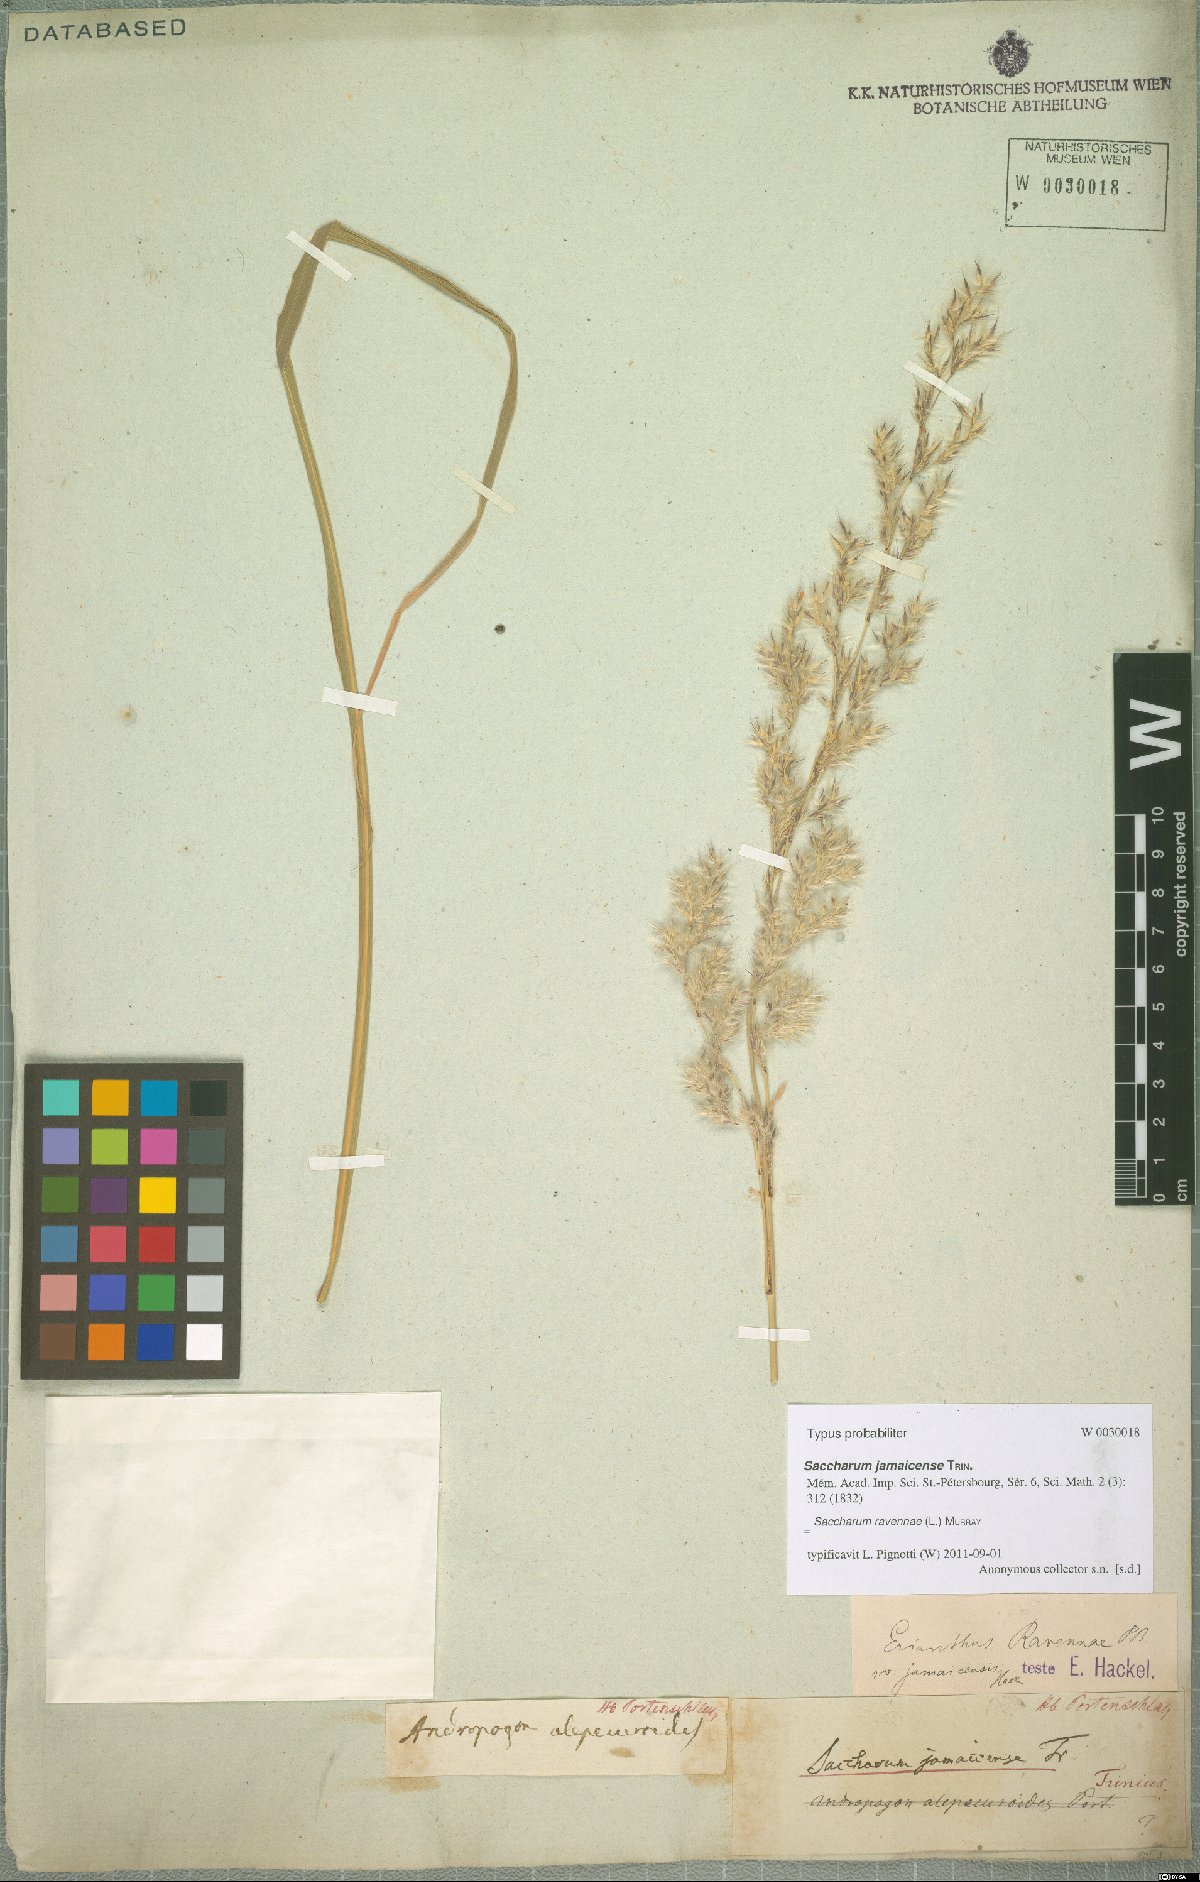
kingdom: Plantae
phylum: Tracheophyta
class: Liliopsida
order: Poales
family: Poaceae
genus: Tripidium
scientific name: Tripidium ravennae
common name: Ravenna grass
